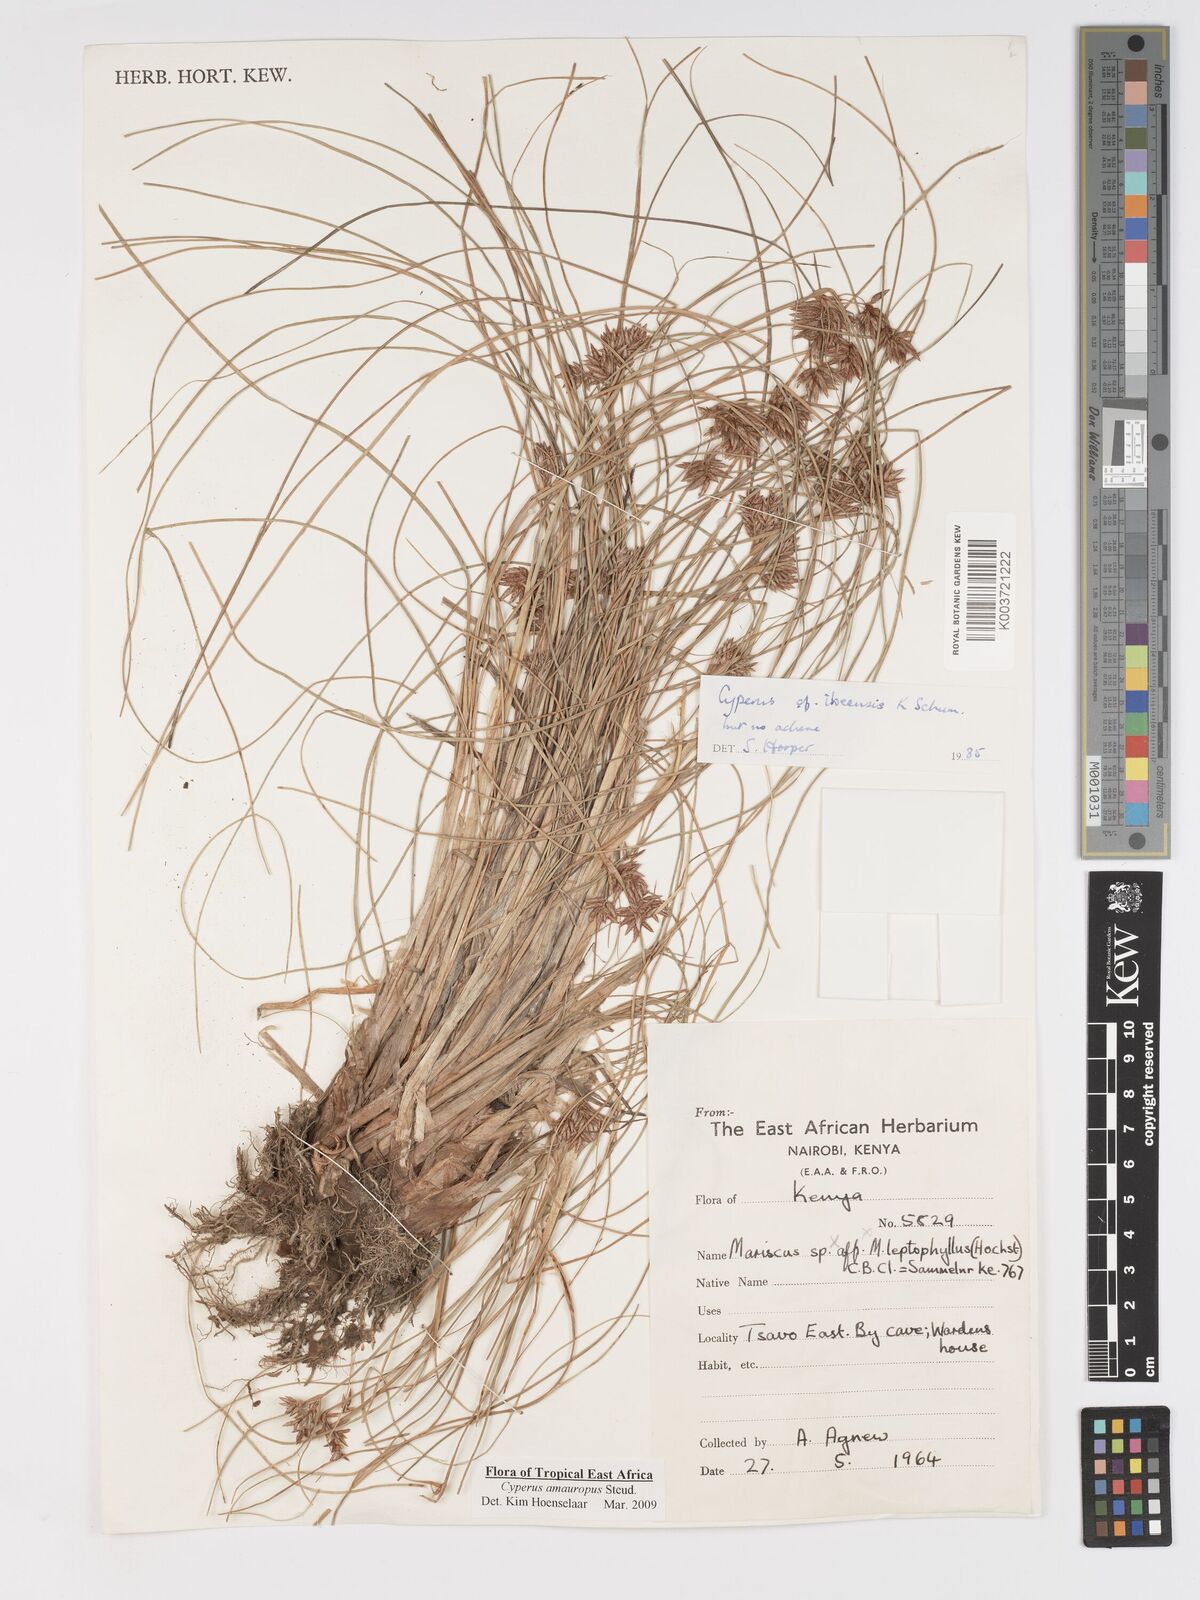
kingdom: Plantae
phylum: Tracheophyta
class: Liliopsida
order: Poales
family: Cyperaceae
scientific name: Cyperaceae
